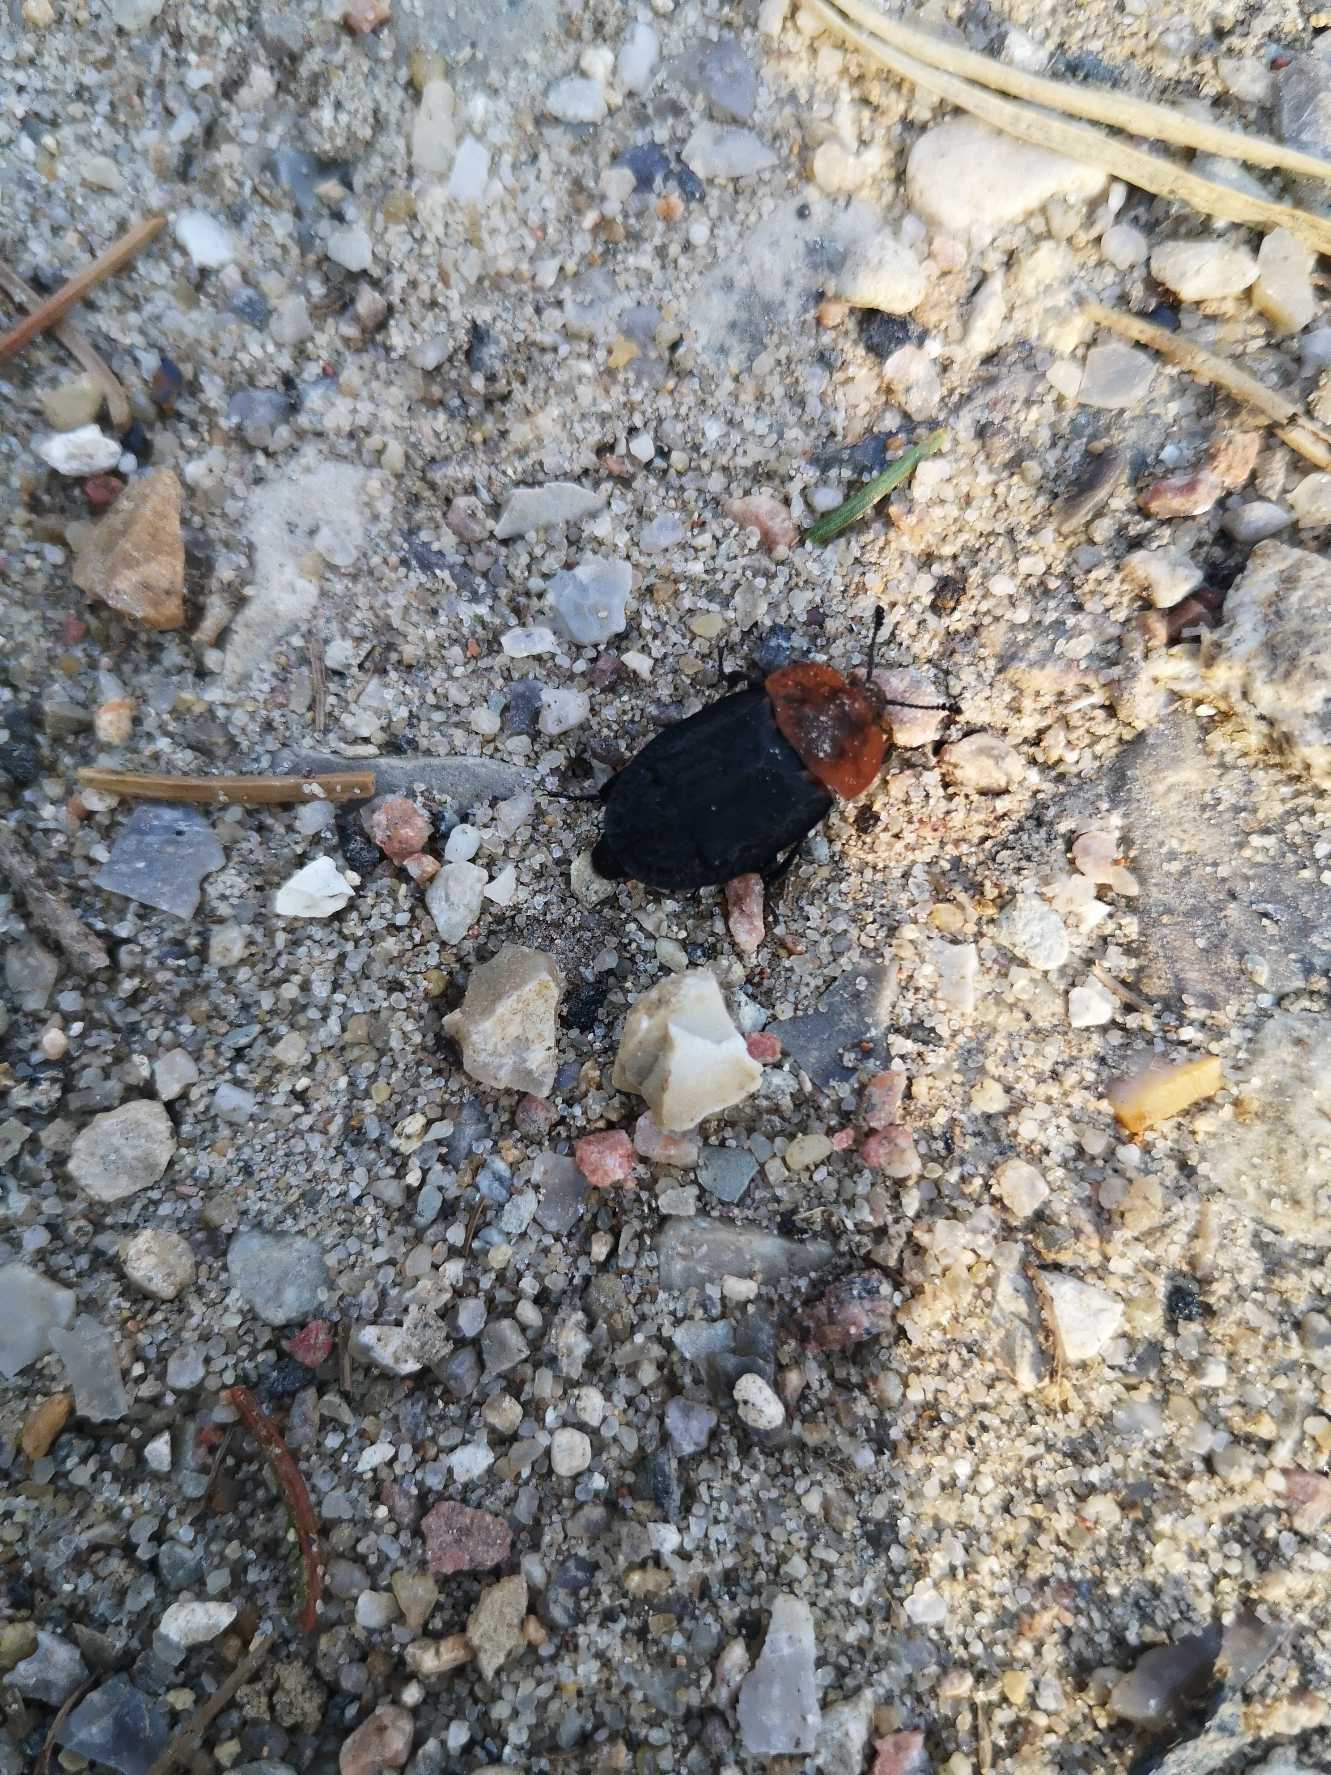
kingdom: Animalia
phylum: Arthropoda
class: Insecta
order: Coleoptera
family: Staphylinidae
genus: Oiceoptoma
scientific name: Oiceoptoma thoracicum
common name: Rødbrystet ådselbille
